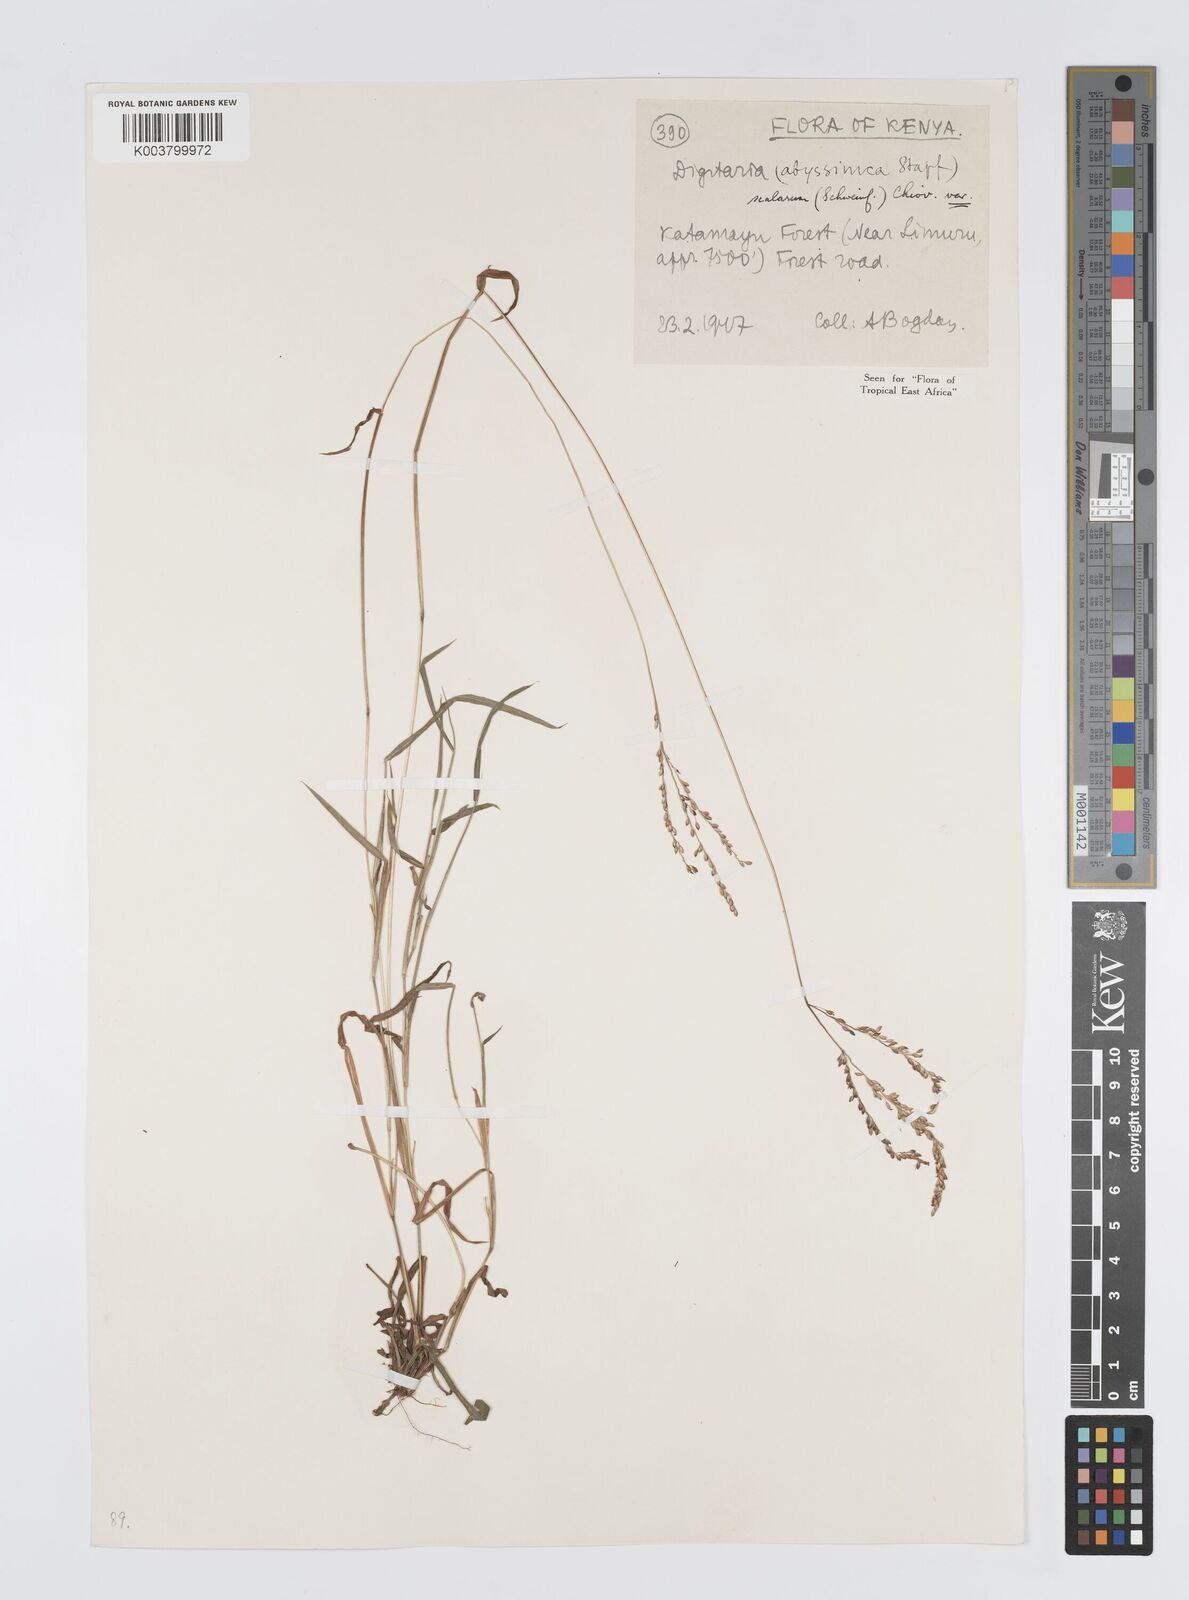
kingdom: Plantae
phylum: Tracheophyta
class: Liliopsida
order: Poales
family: Poaceae
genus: Digitaria
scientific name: Digitaria abyssinica
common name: African couchgrass
